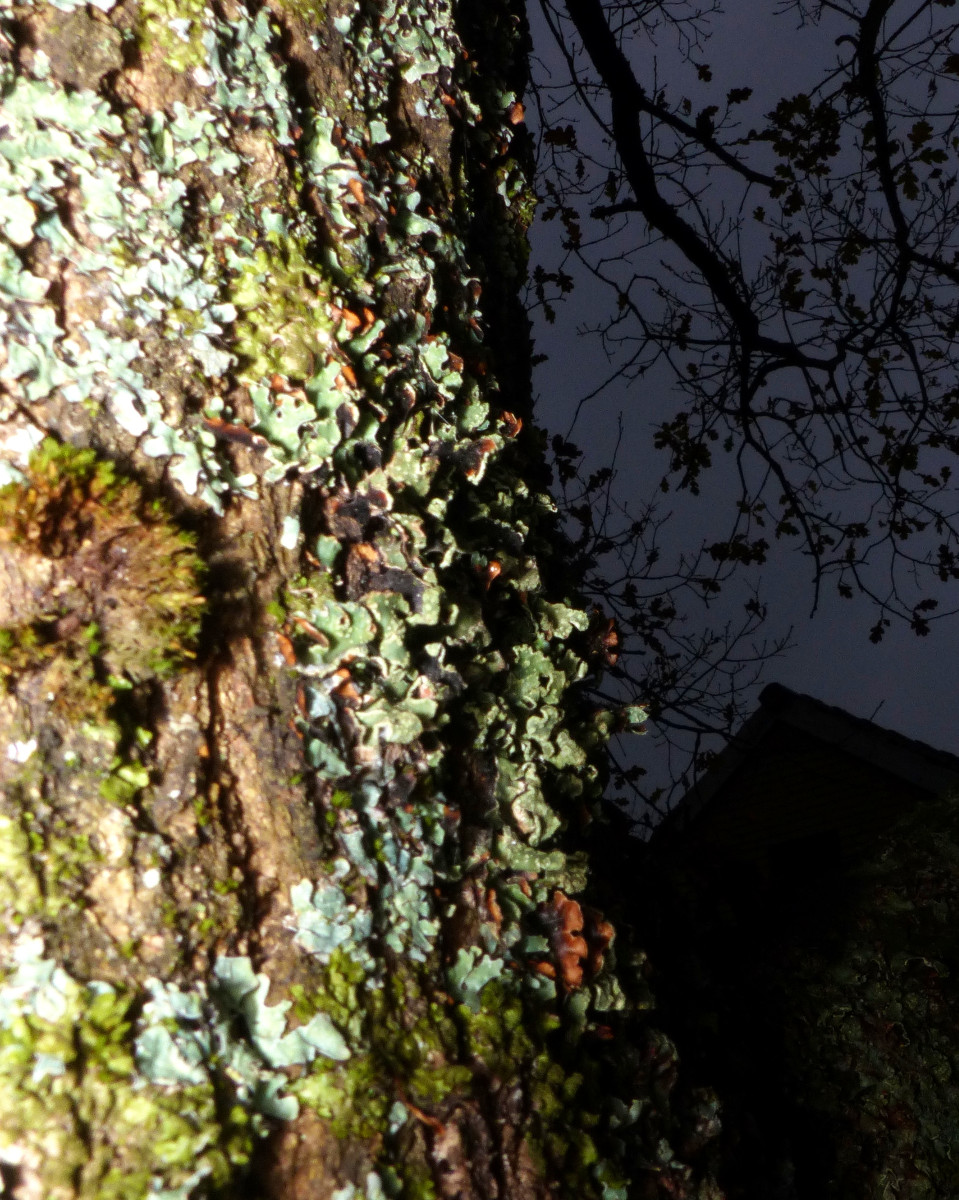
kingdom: Fungi
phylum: Ascomycota
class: Lecanoromycetes
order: Lecanorales
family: Parmeliaceae
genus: Parmelia
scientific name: Parmelia sulcata
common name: rynket skållav
